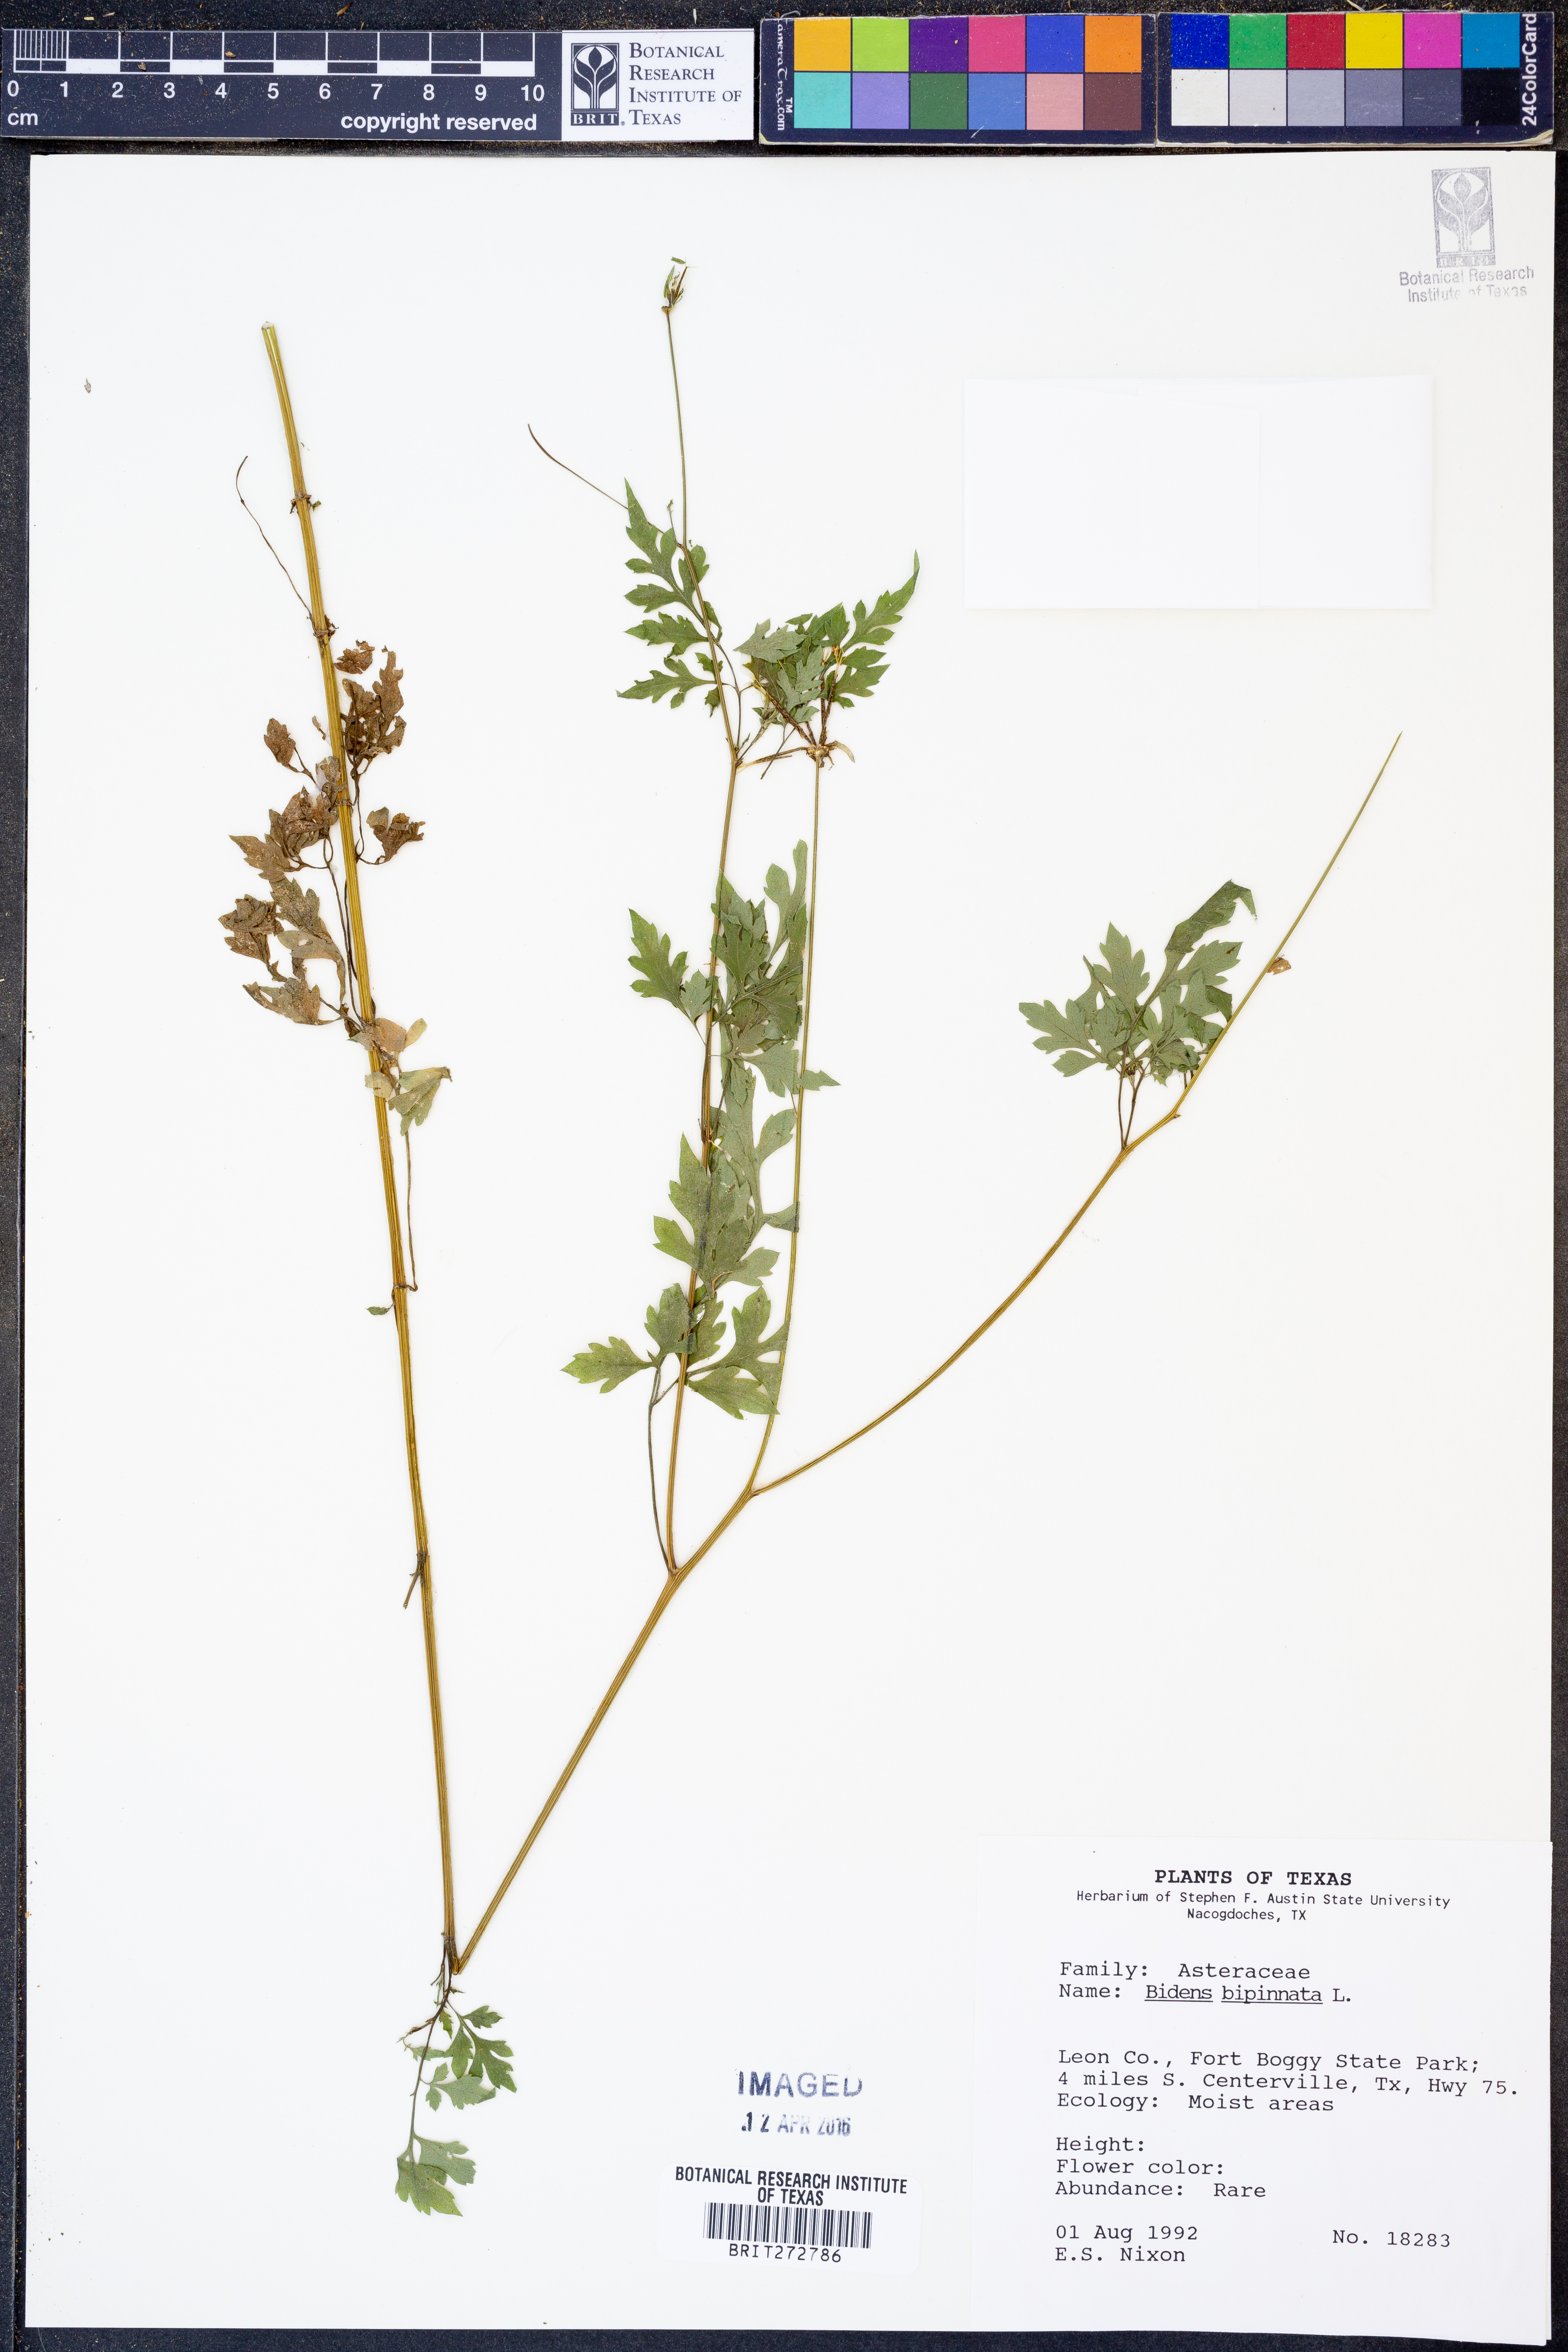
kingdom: Plantae
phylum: Tracheophyta
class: Magnoliopsida
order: Asterales
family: Asteraceae
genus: Bidens
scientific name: Bidens bipinnata
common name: Spanish-needles
